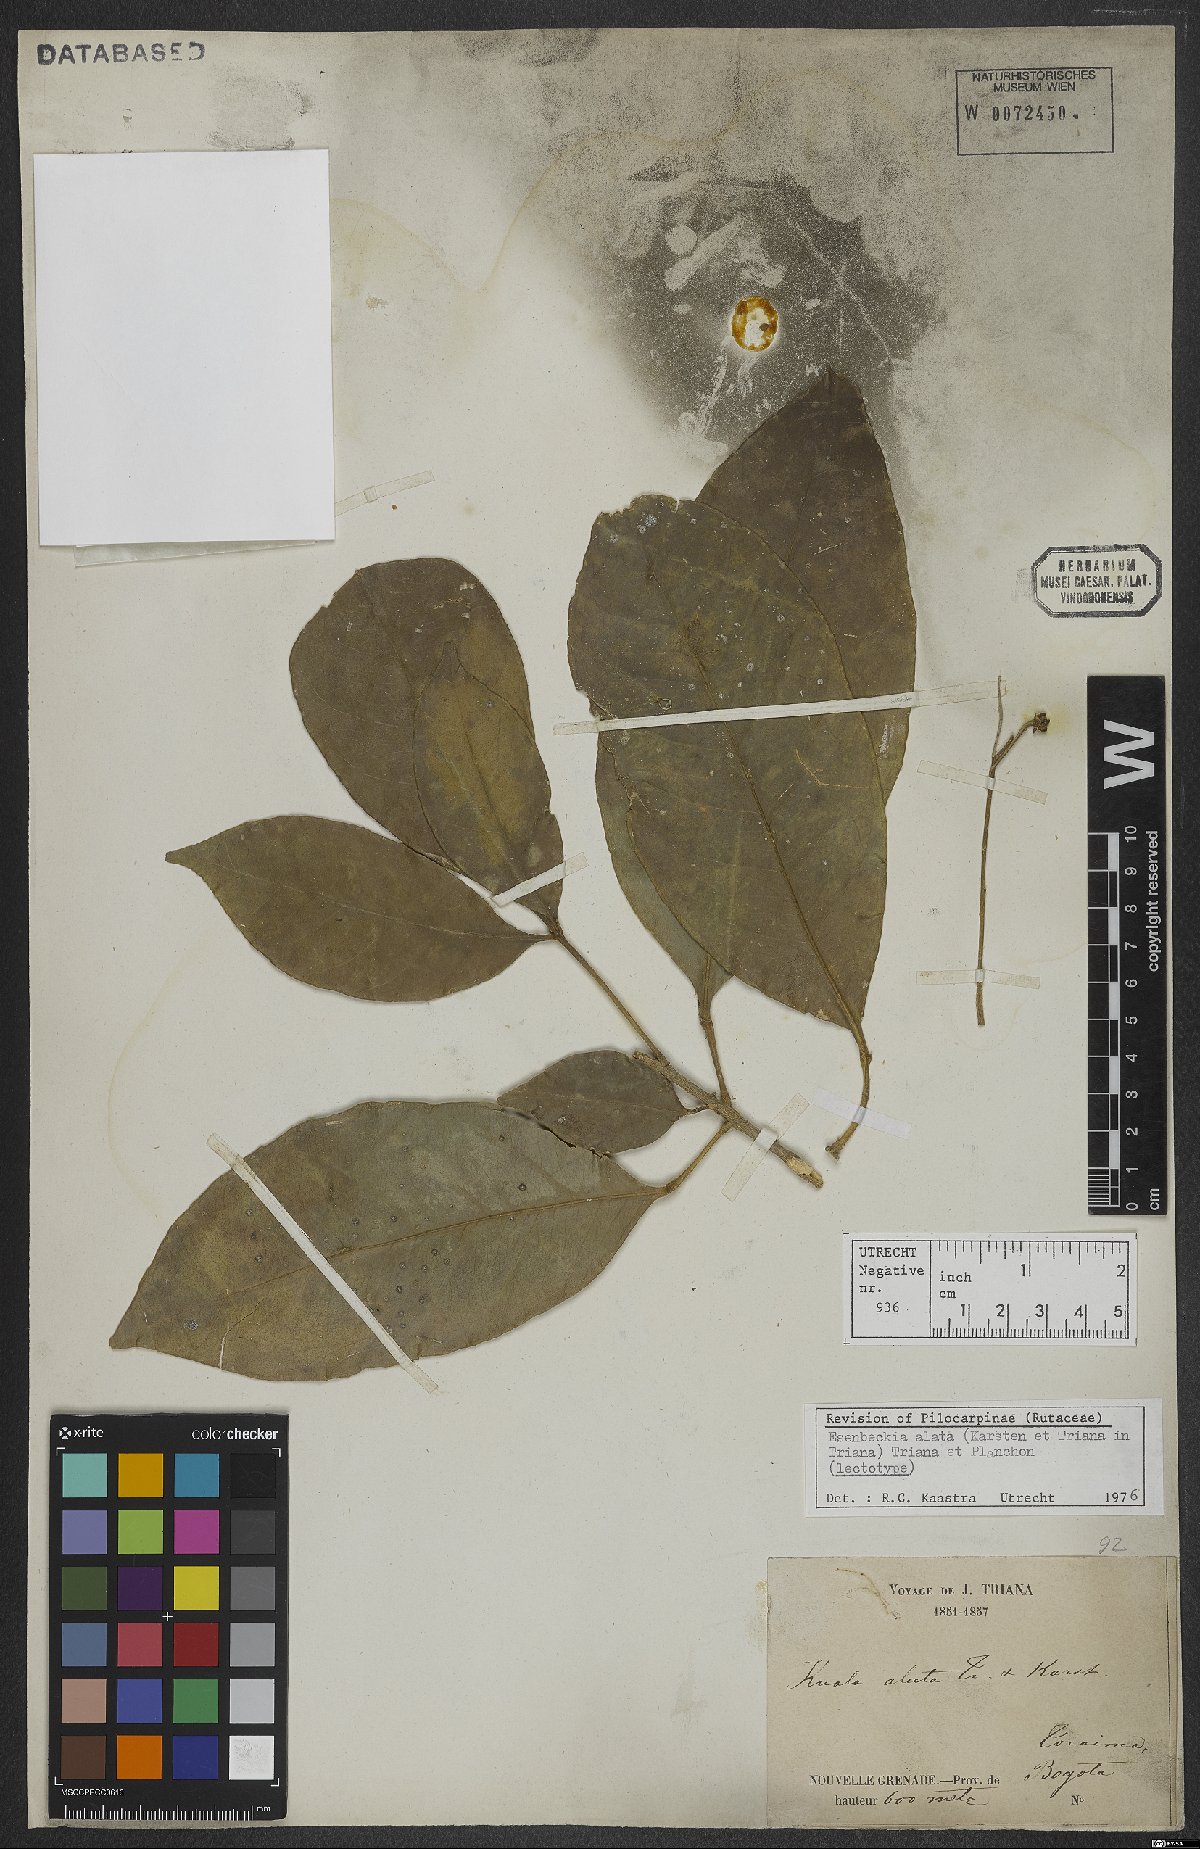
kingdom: Plantae
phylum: Tracheophyta
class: Magnoliopsida
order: Sapindales
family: Rutaceae
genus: Esenbeckia
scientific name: Esenbeckia alata
